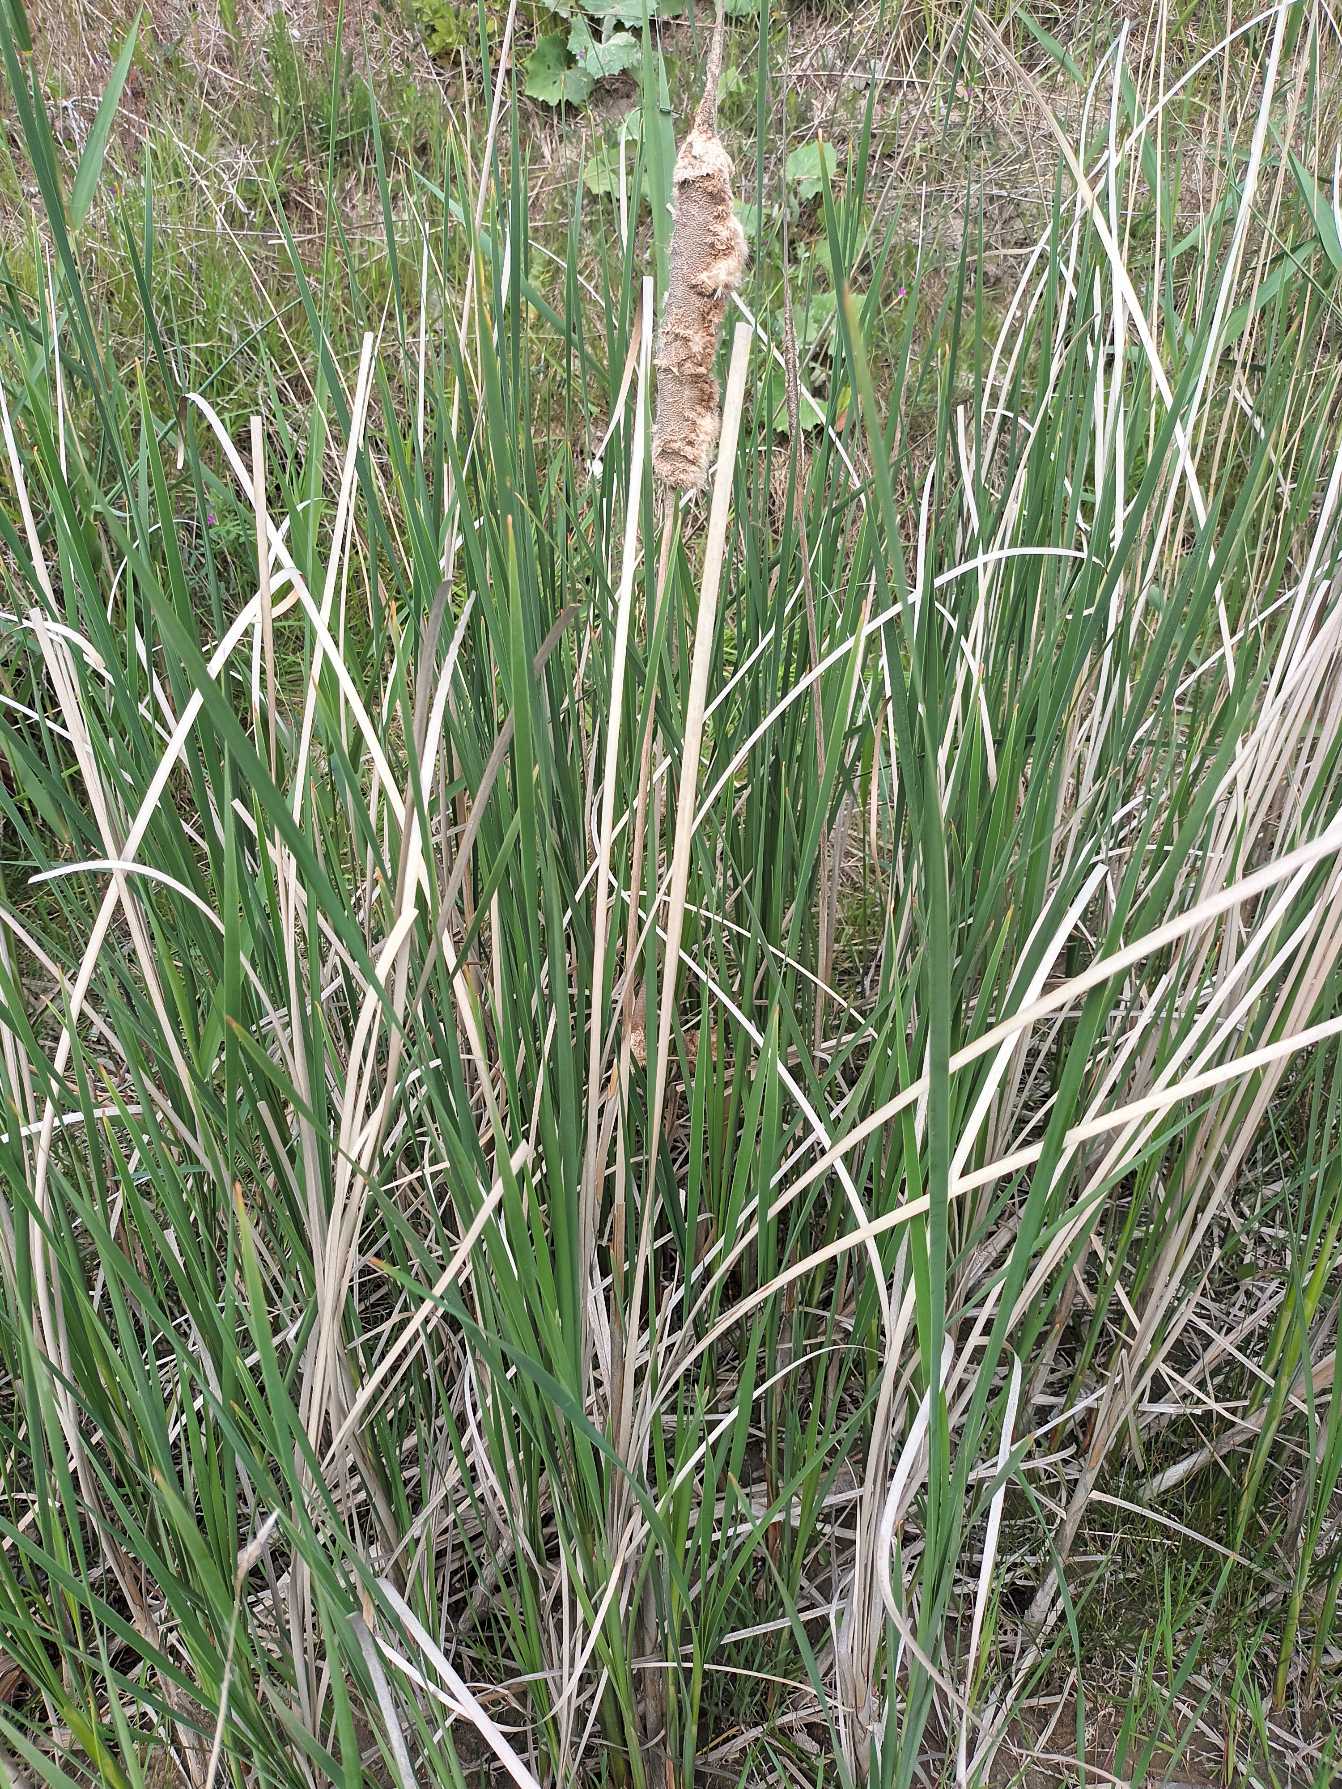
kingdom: Plantae
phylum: Tracheophyta
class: Liliopsida
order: Poales
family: Typhaceae
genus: Typha
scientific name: Typha
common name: Smalbladet dunhammer × bredbladet dunhammer
